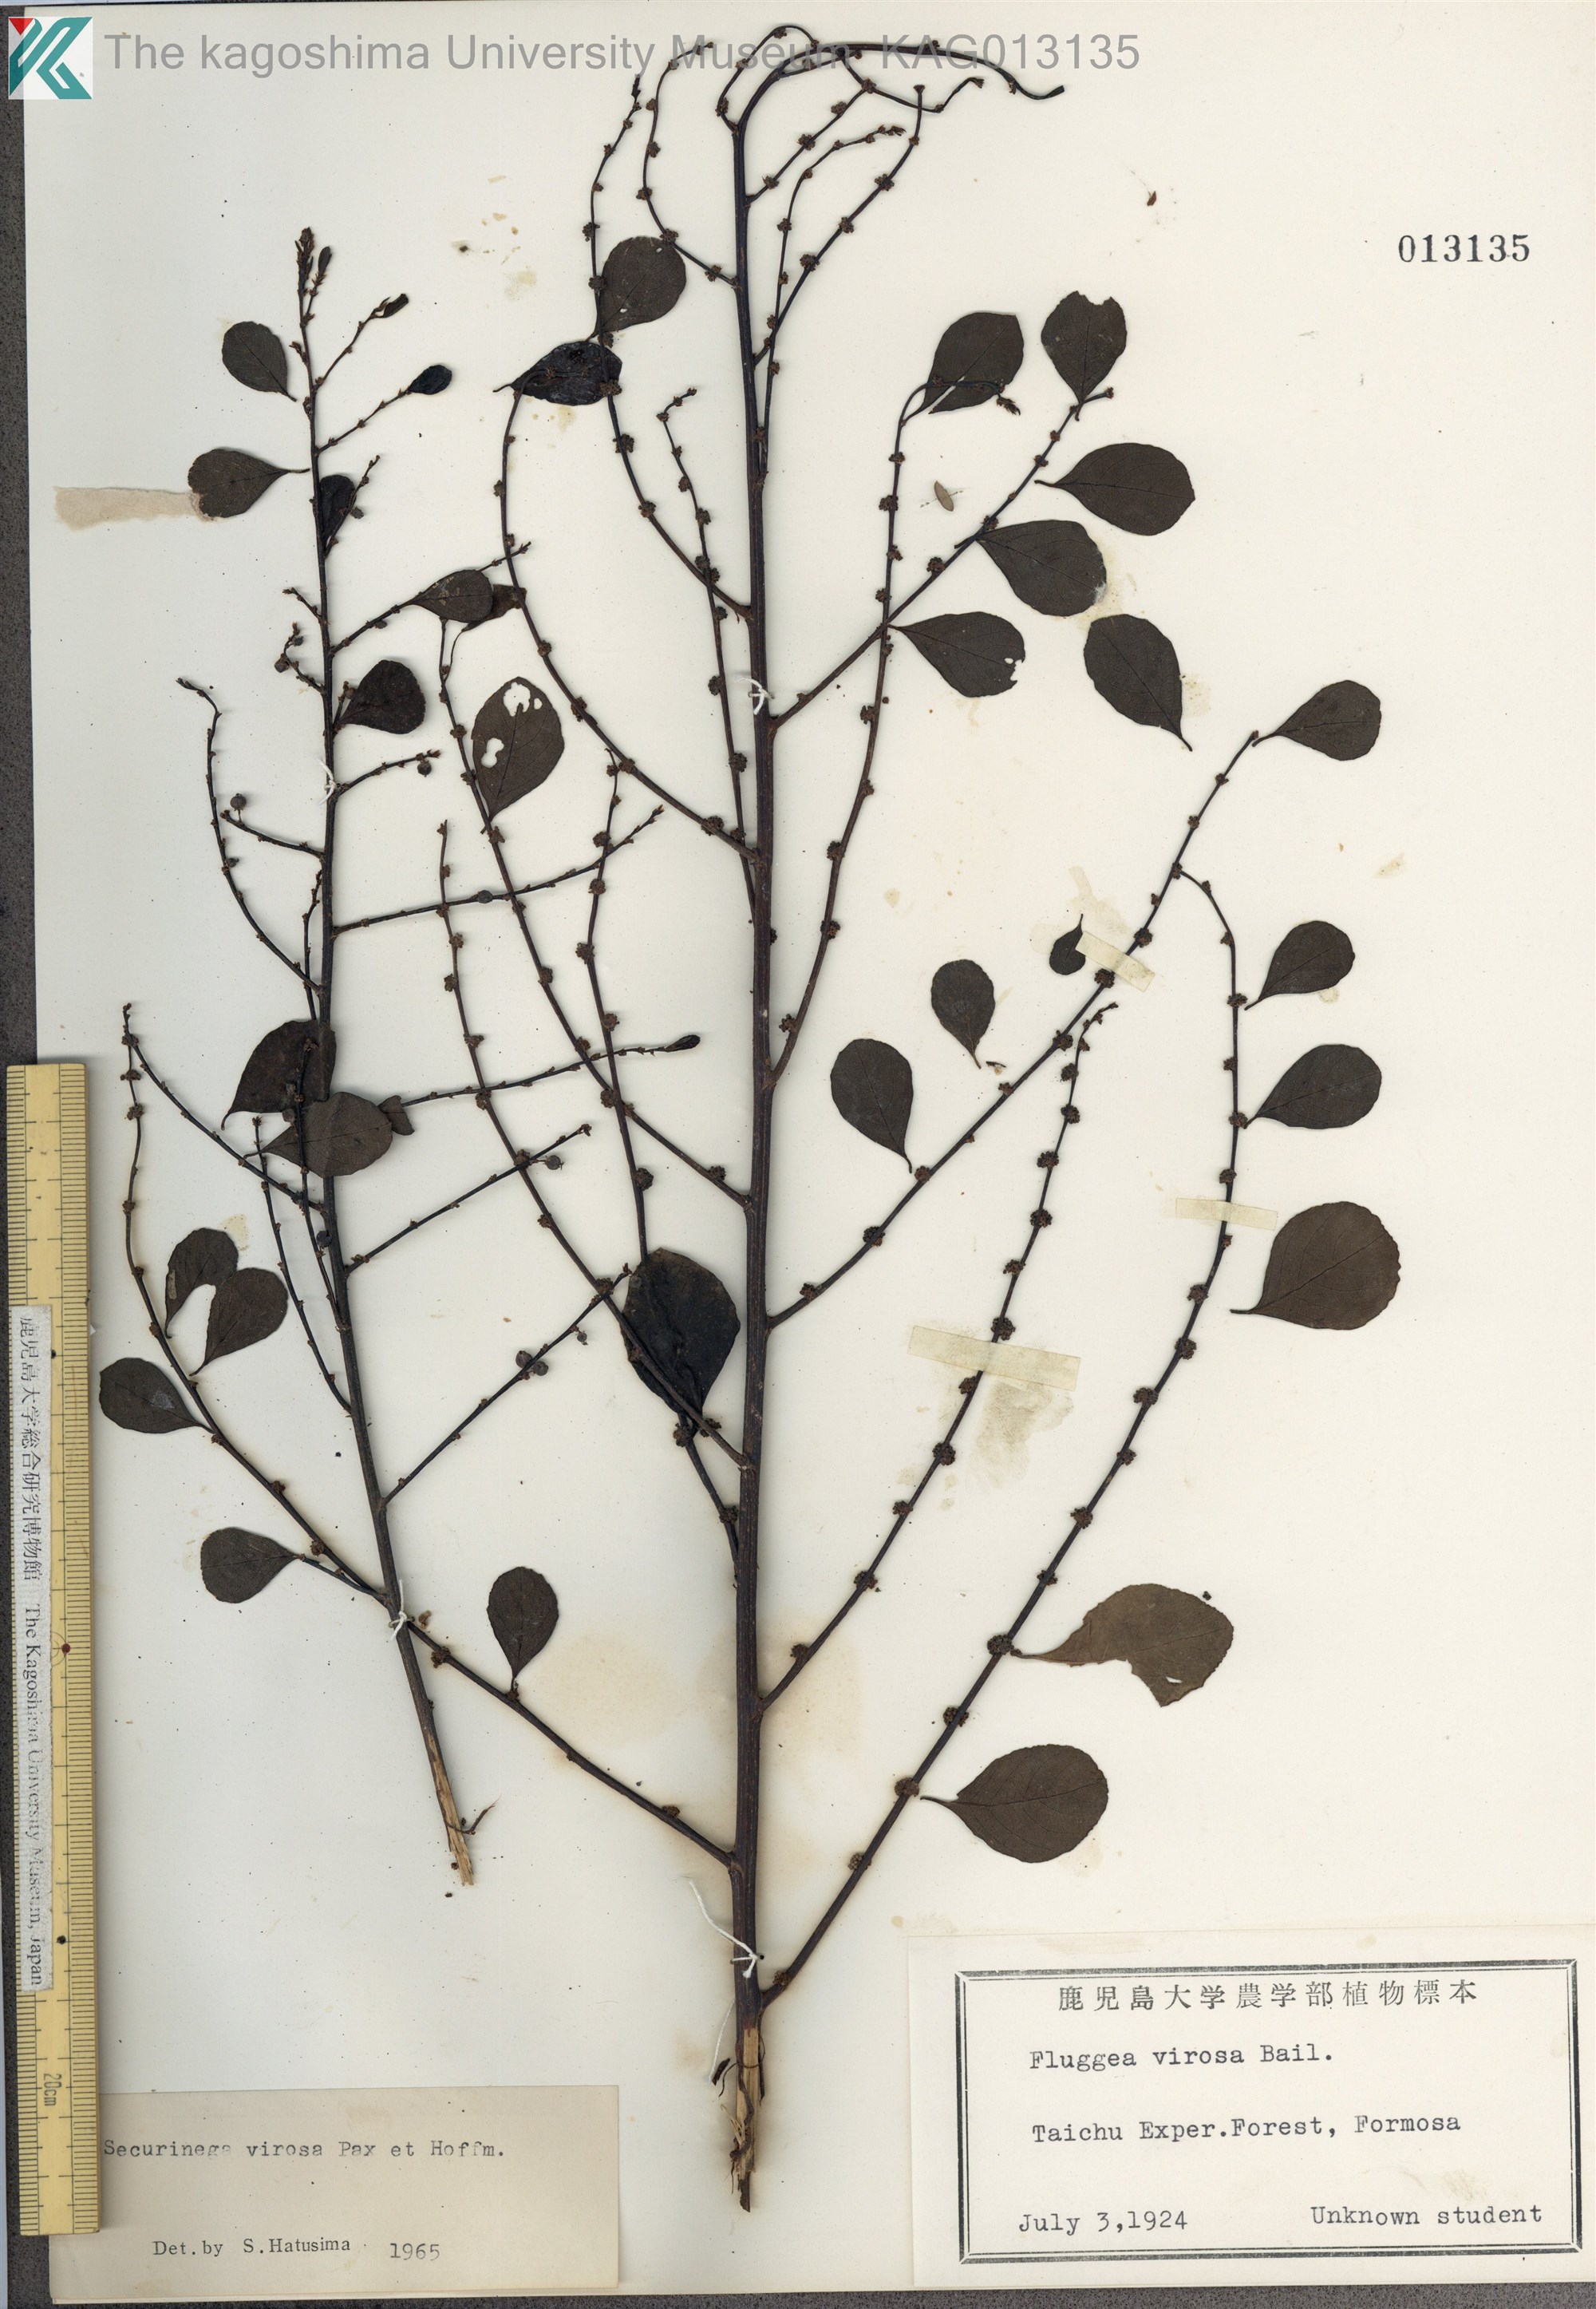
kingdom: Plantae
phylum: Tracheophyta
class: Magnoliopsida
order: Malpighiales
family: Phyllanthaceae
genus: Flueggea
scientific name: Flueggea virosa
